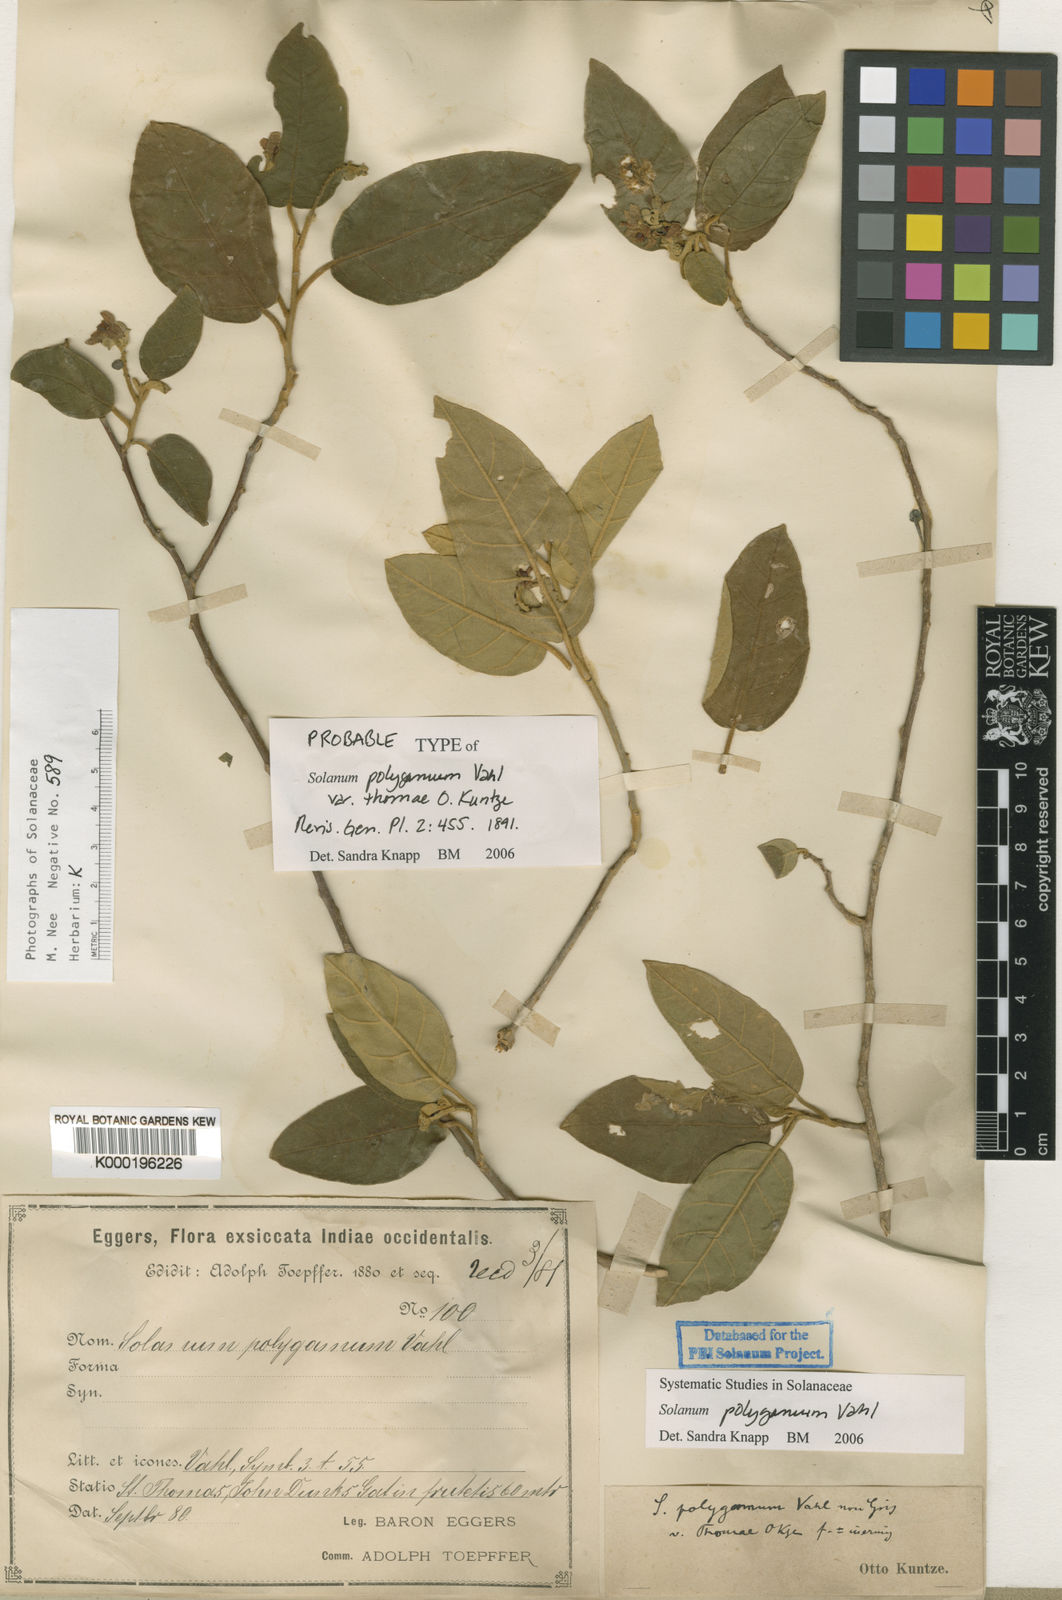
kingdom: Plantae
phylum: Tracheophyta
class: Magnoliopsida
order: Solanales
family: Solanaceae
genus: Solanum
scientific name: Solanum polygamum
